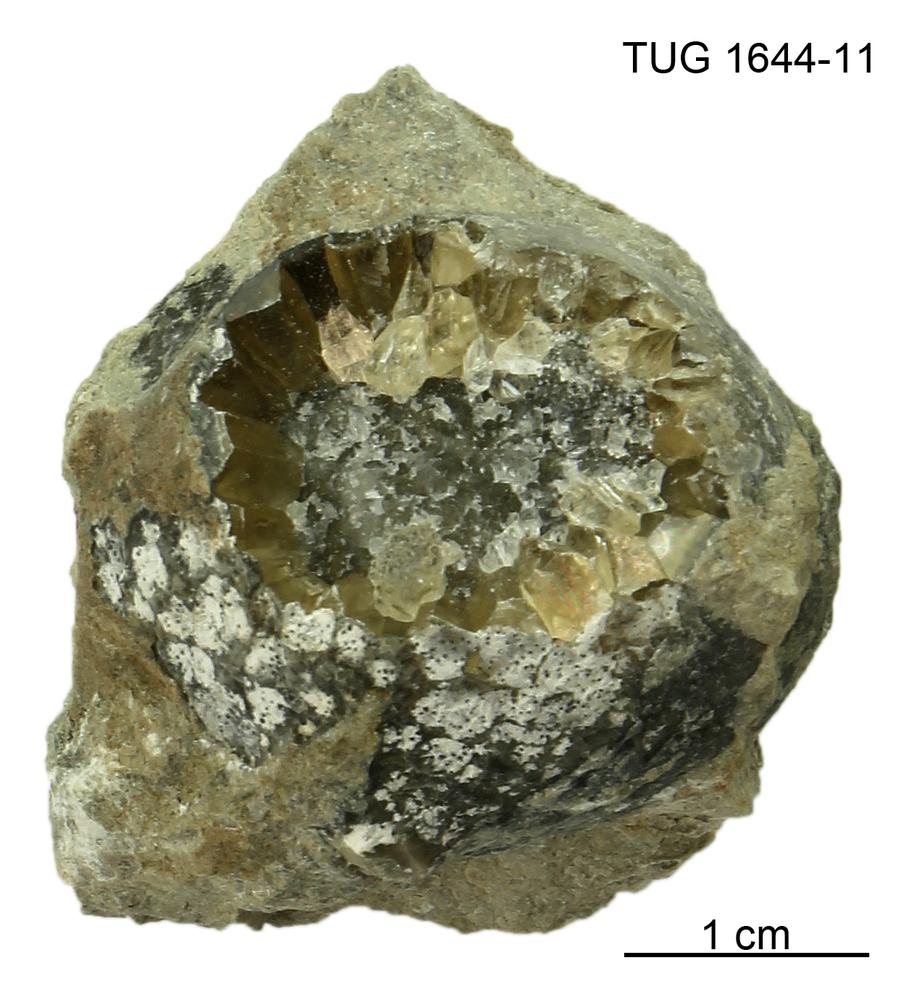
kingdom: Animalia
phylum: Echinodermata
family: Echinosphaeritidae
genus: Echinosphaerites
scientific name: Echinosphaerites
